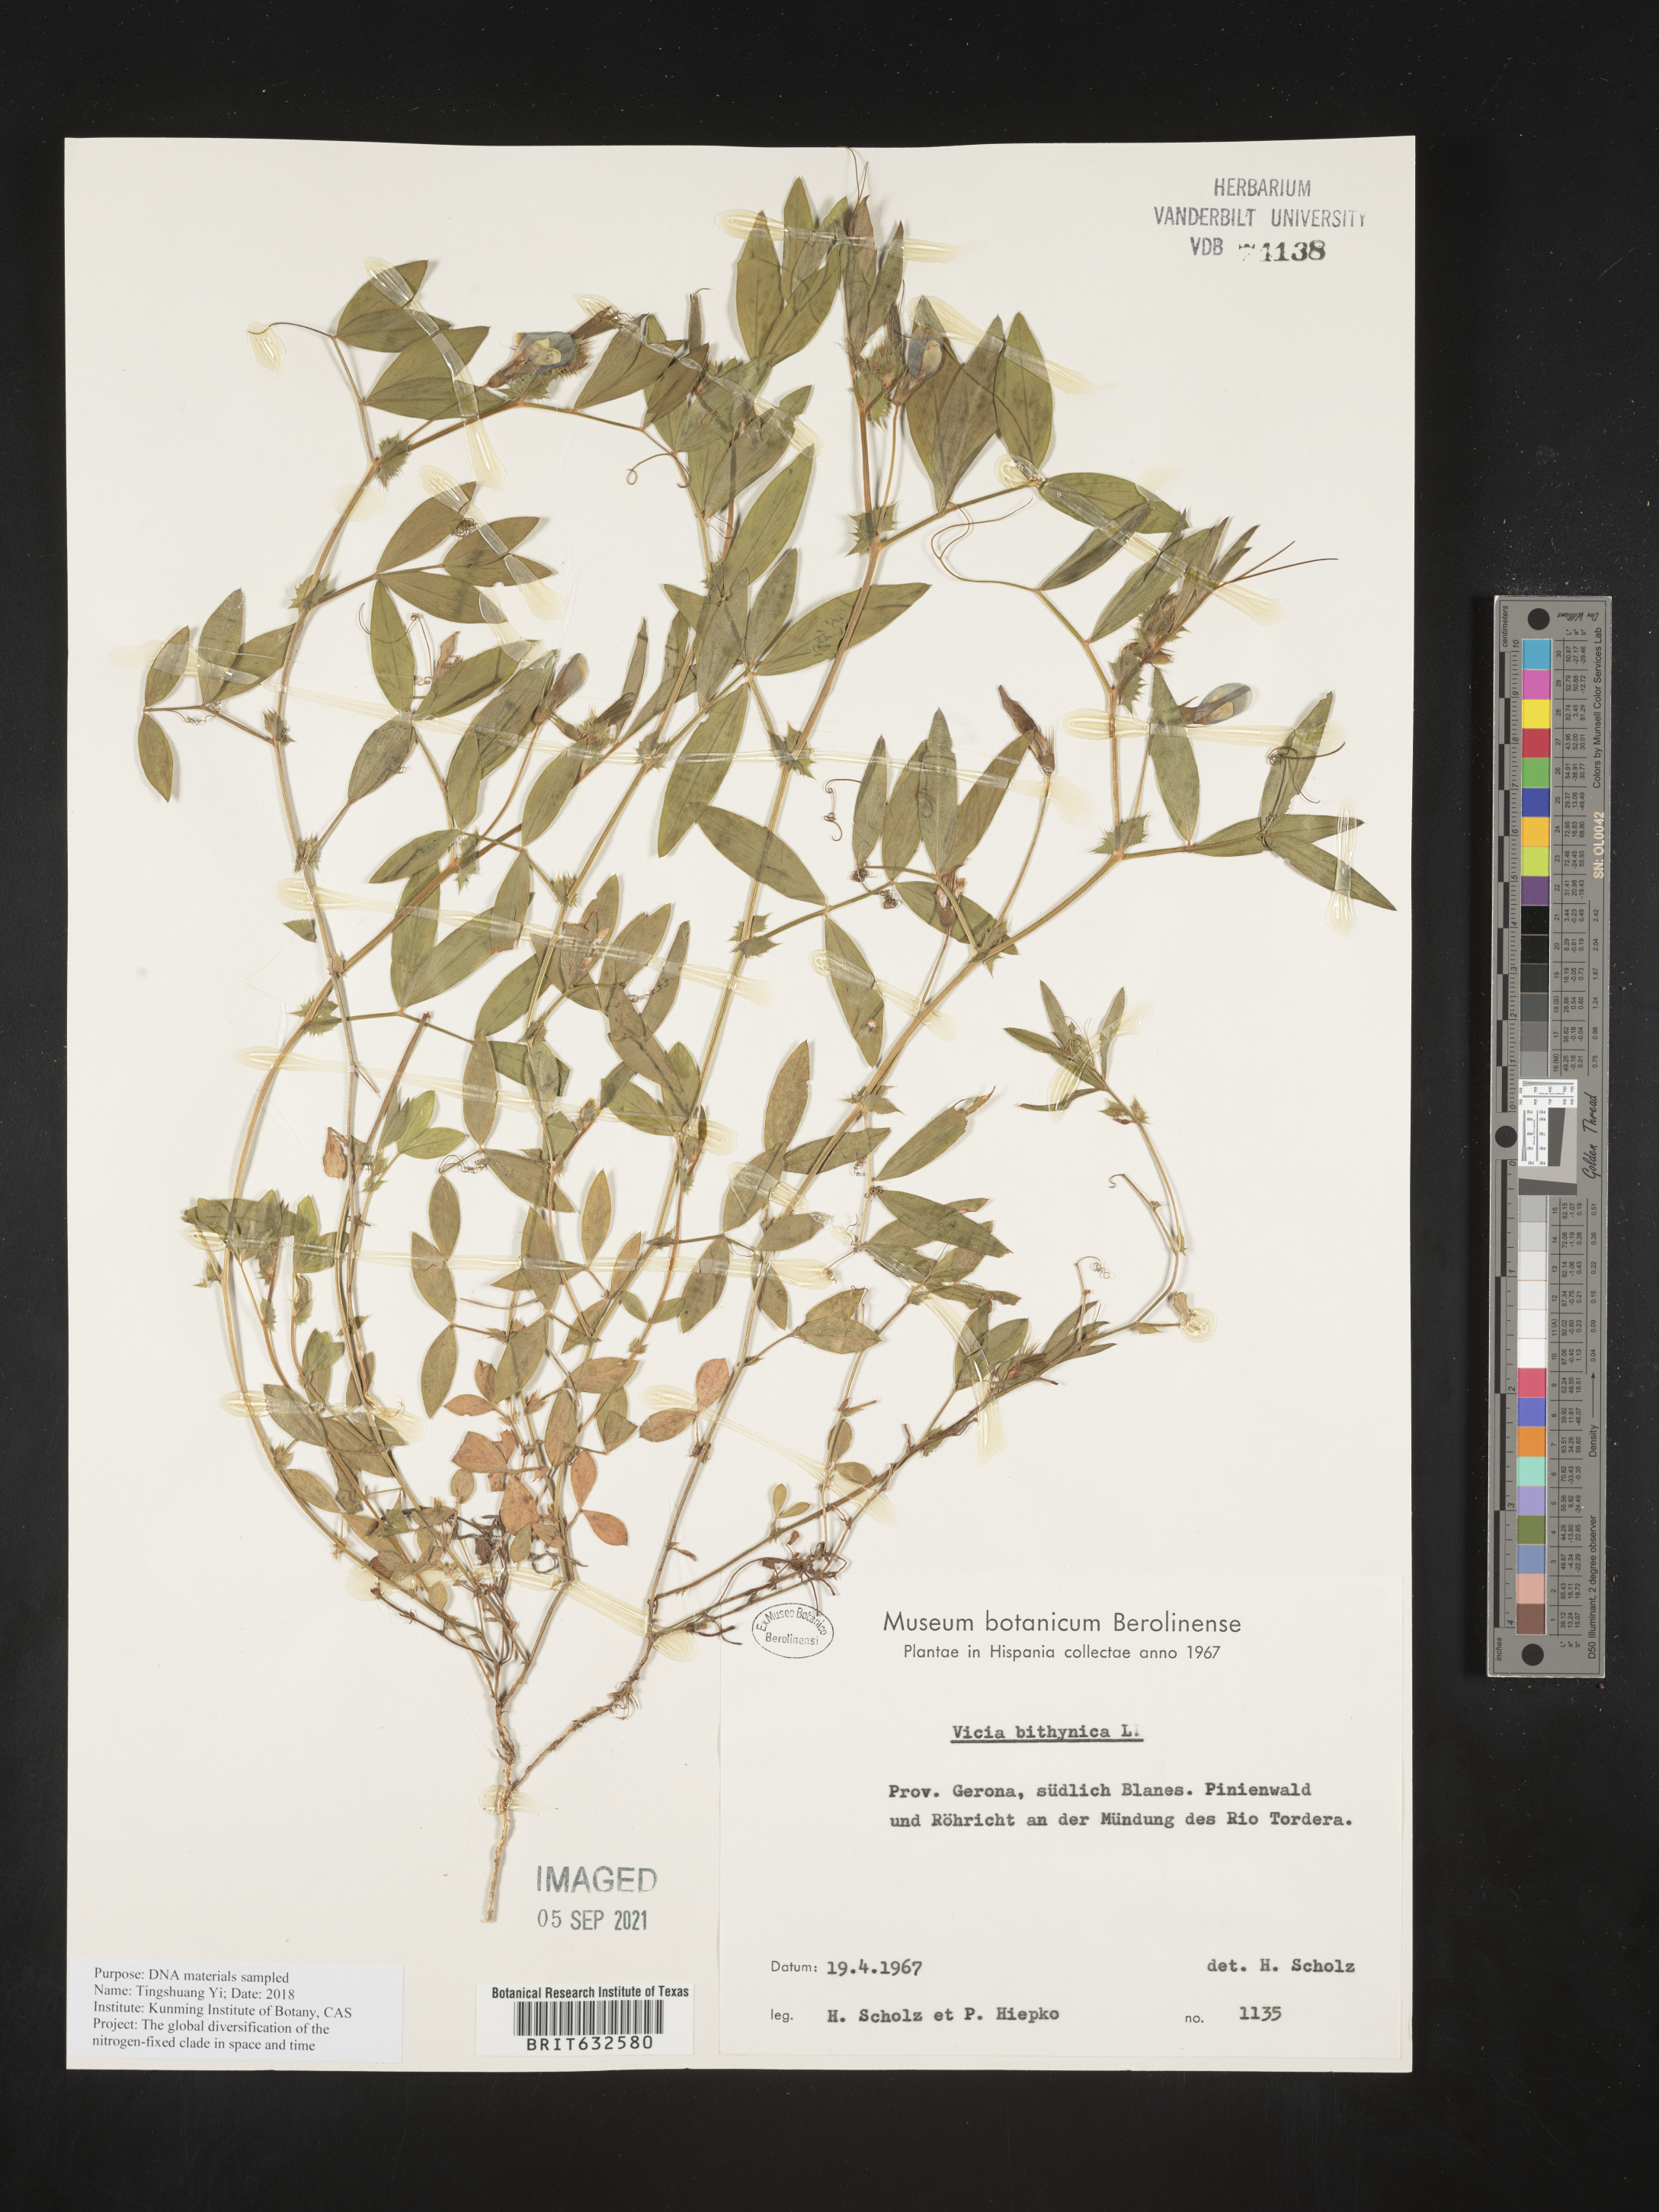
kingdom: Plantae
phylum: Tracheophyta
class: Magnoliopsida
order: Fabales
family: Fabaceae
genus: Vicia
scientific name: Vicia
